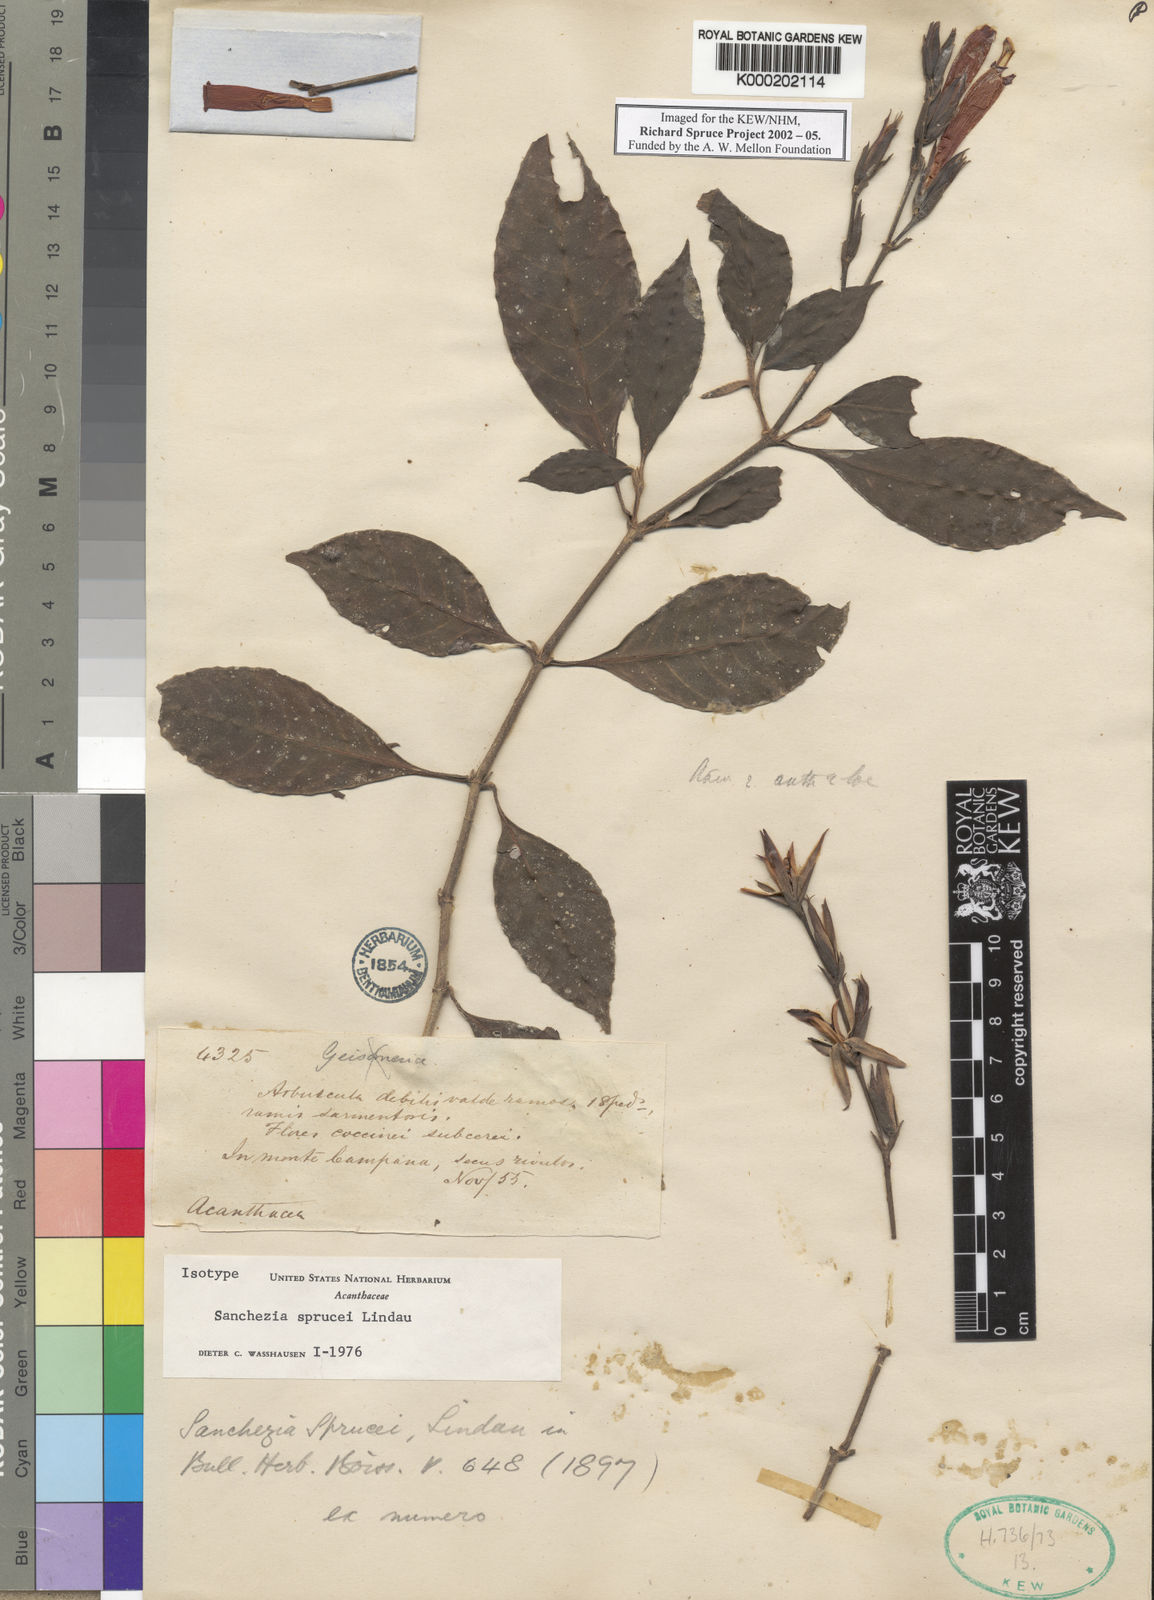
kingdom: Plantae
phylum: Tracheophyta
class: Magnoliopsida
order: Lamiales
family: Acanthaceae
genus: Sanchezia
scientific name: Sanchezia sprucei
